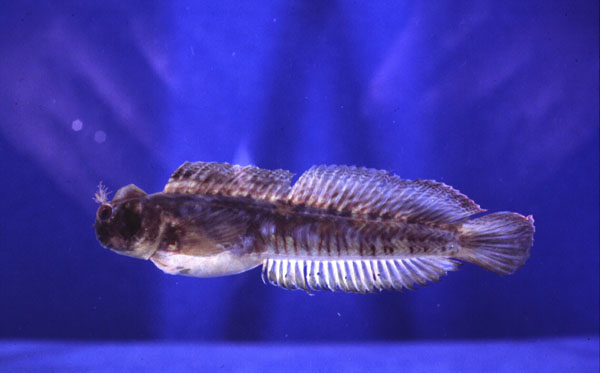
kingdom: Animalia
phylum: Chordata
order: Perciformes
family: Blenniidae
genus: Istiblennius
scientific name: Istiblennius dussumieri
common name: Dussumier's rockskipper
